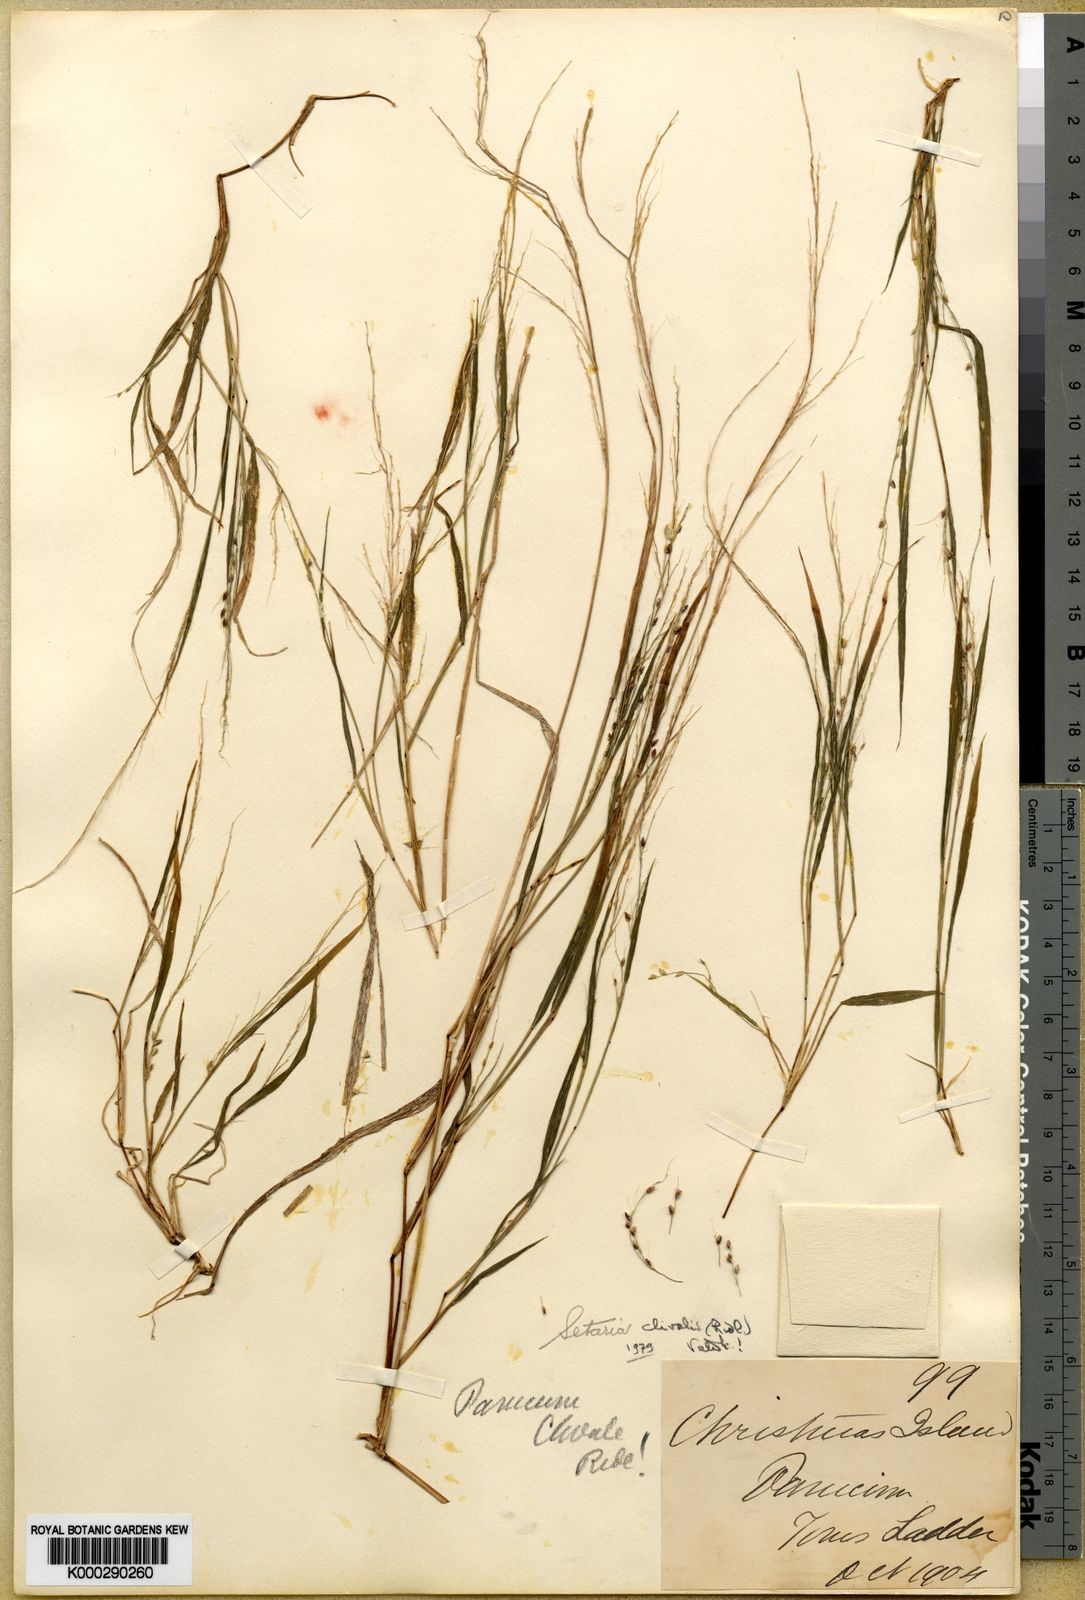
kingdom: Plantae
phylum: Tracheophyta
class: Liliopsida
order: Poales
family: Poaceae
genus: Setaria
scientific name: Setaria clivalis
